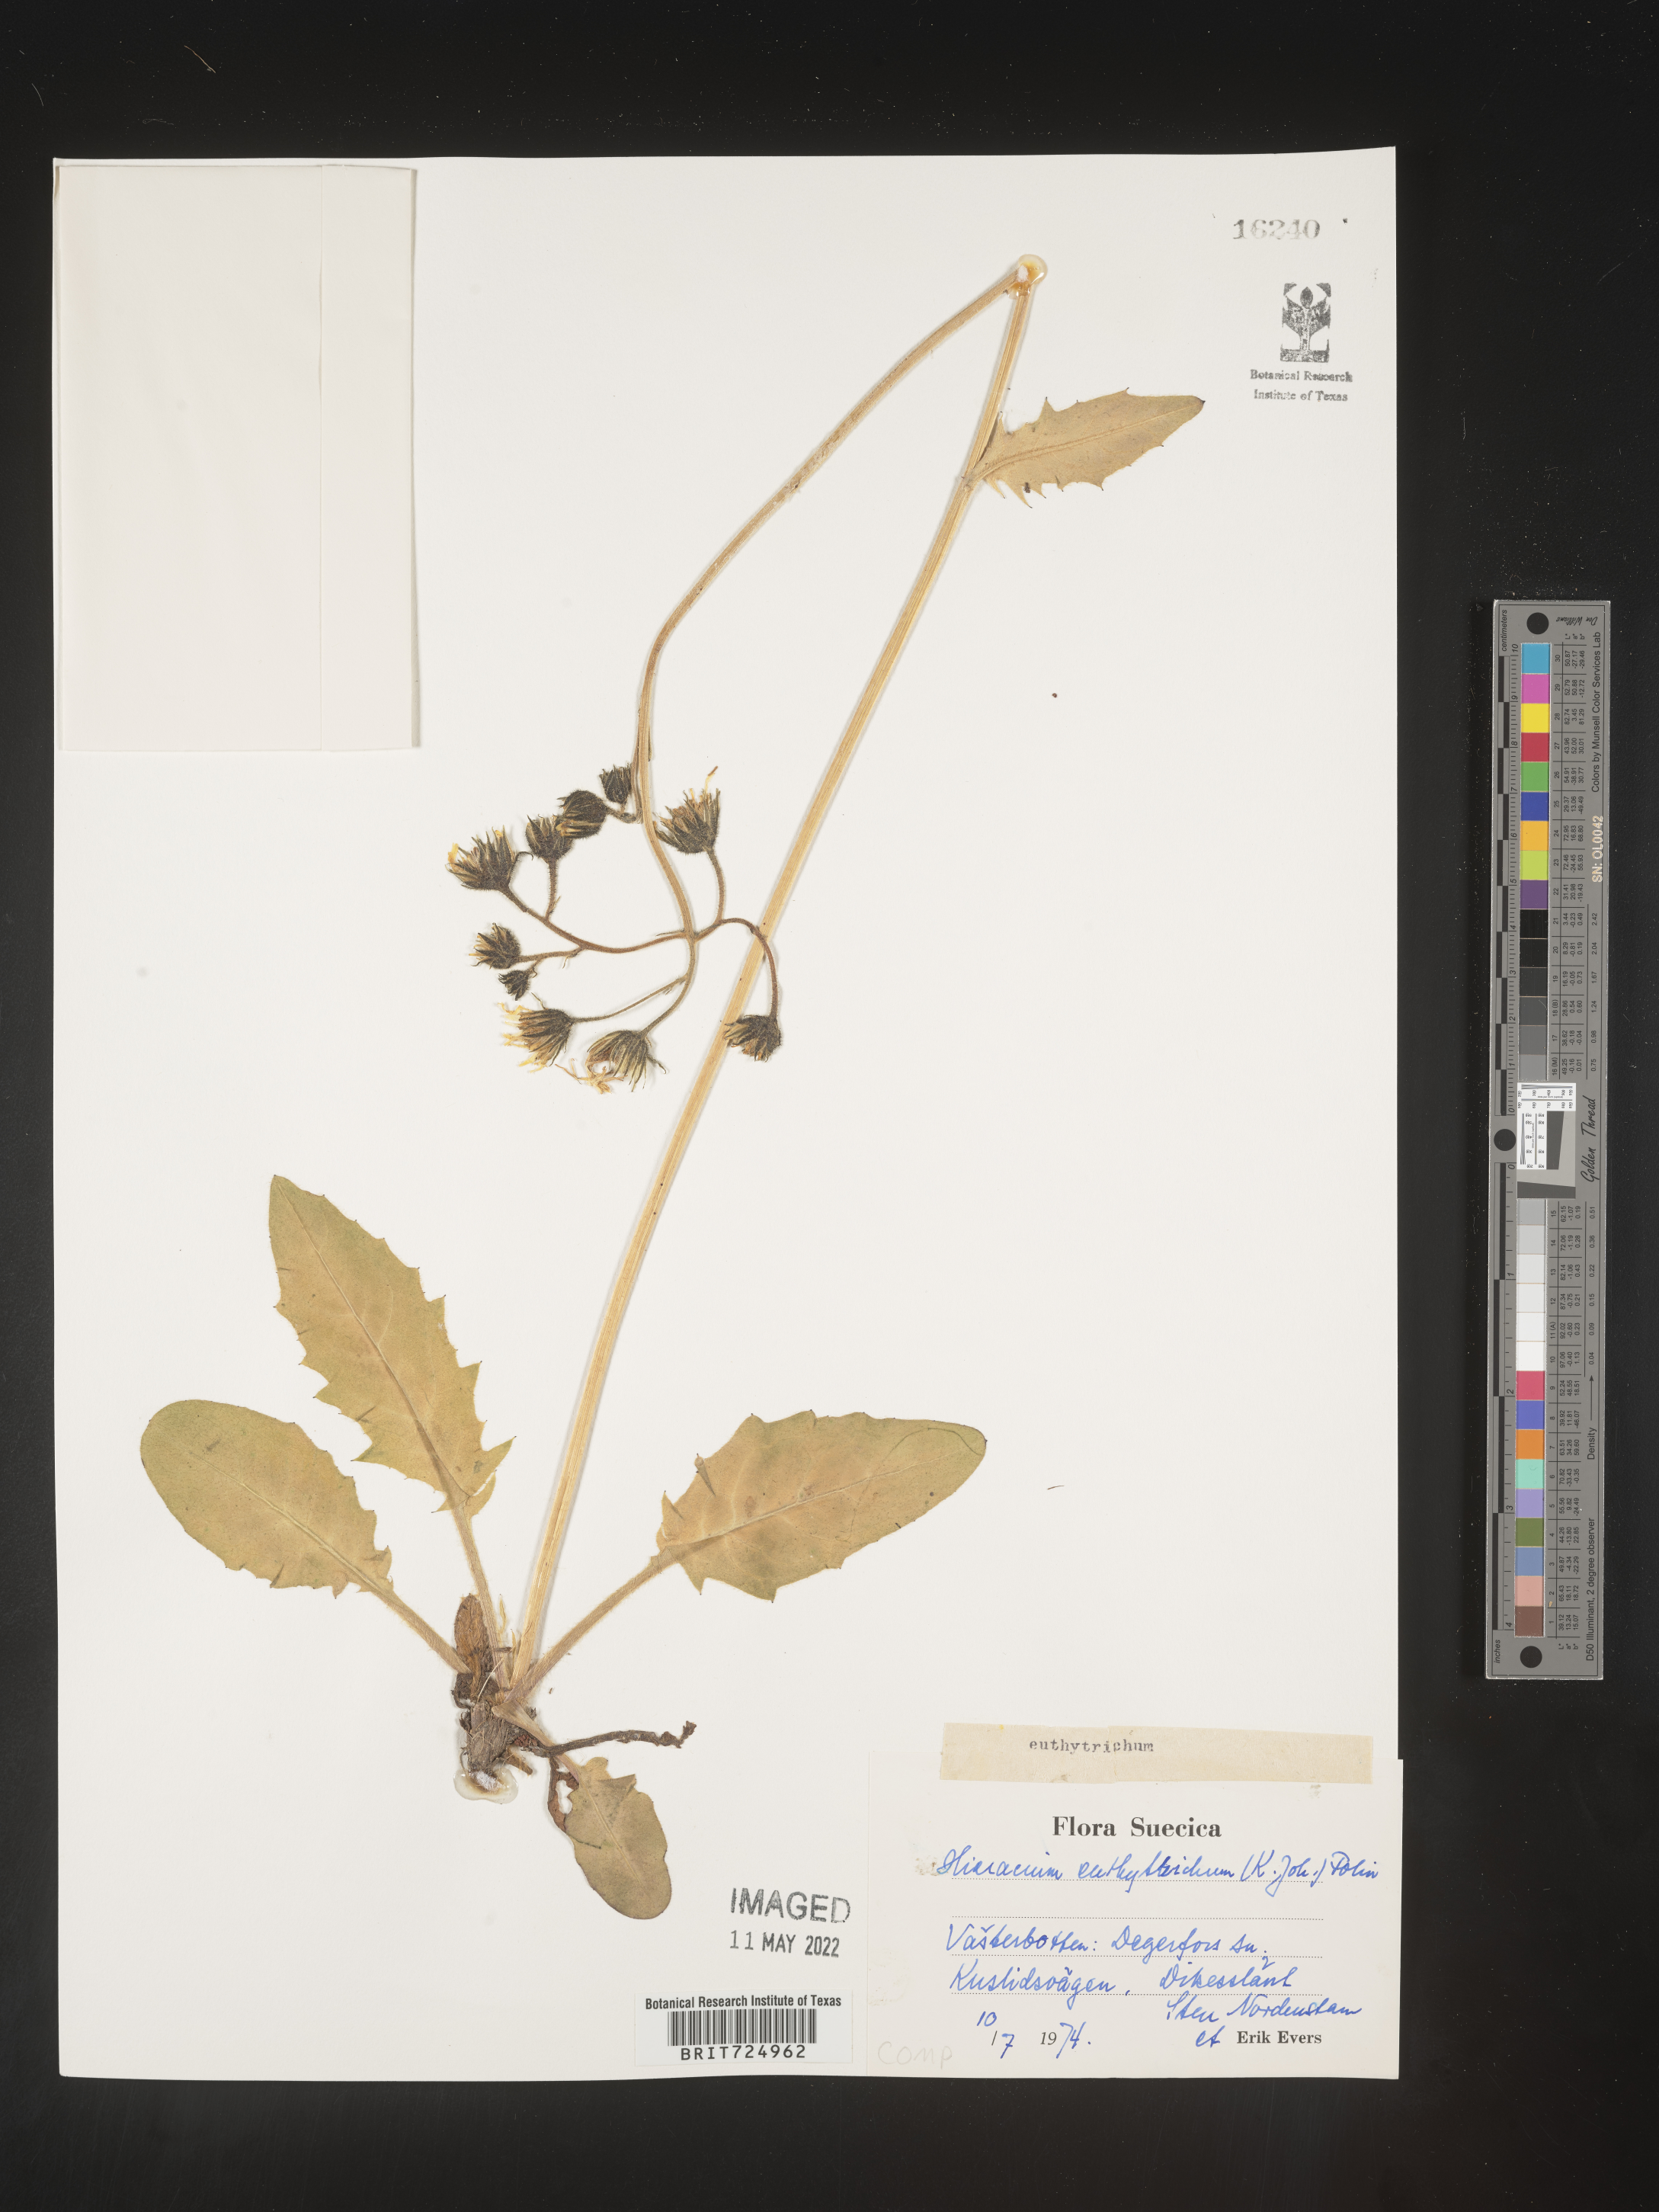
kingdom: Plantae
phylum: Tracheophyta
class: Magnoliopsida
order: Asterales
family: Asteraceae
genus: Hieracium
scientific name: Hieracium
